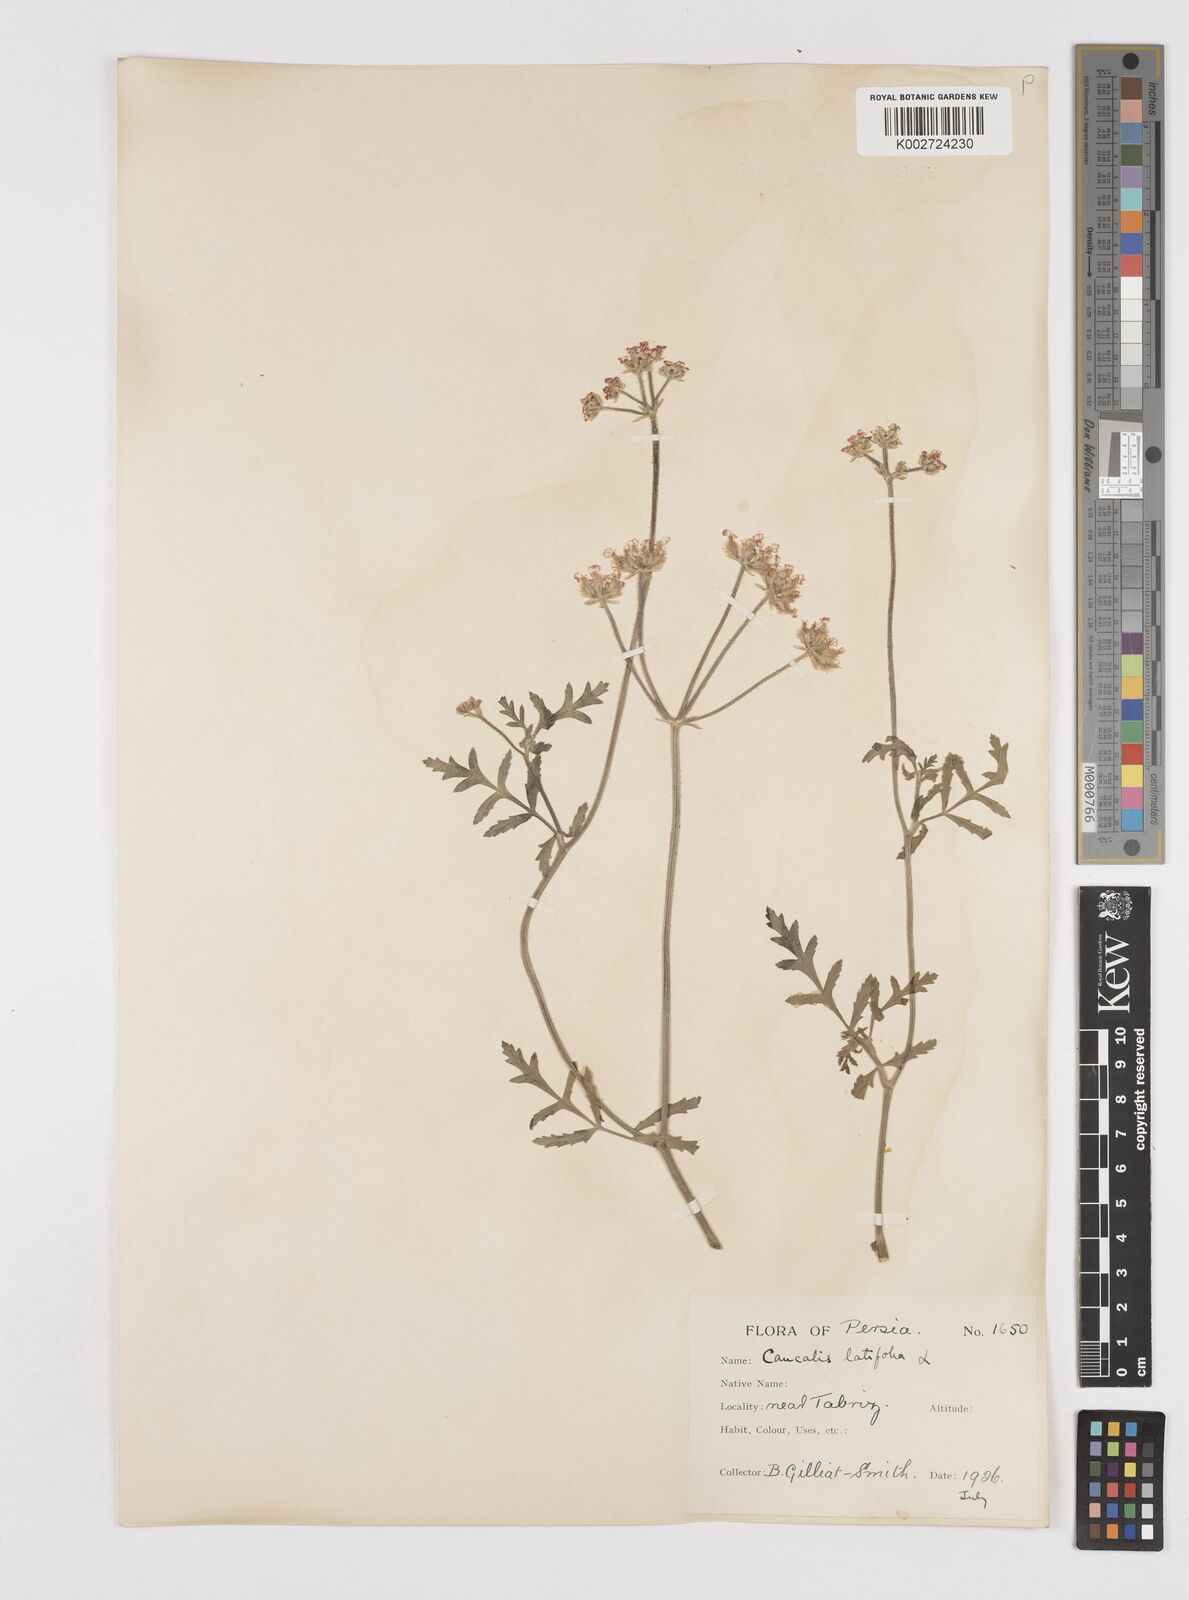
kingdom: Plantae
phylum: Tracheophyta
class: Magnoliopsida
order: Apiales
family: Apiaceae
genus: Turgenia
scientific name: Turgenia latifolia
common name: Greater bur-parsley
